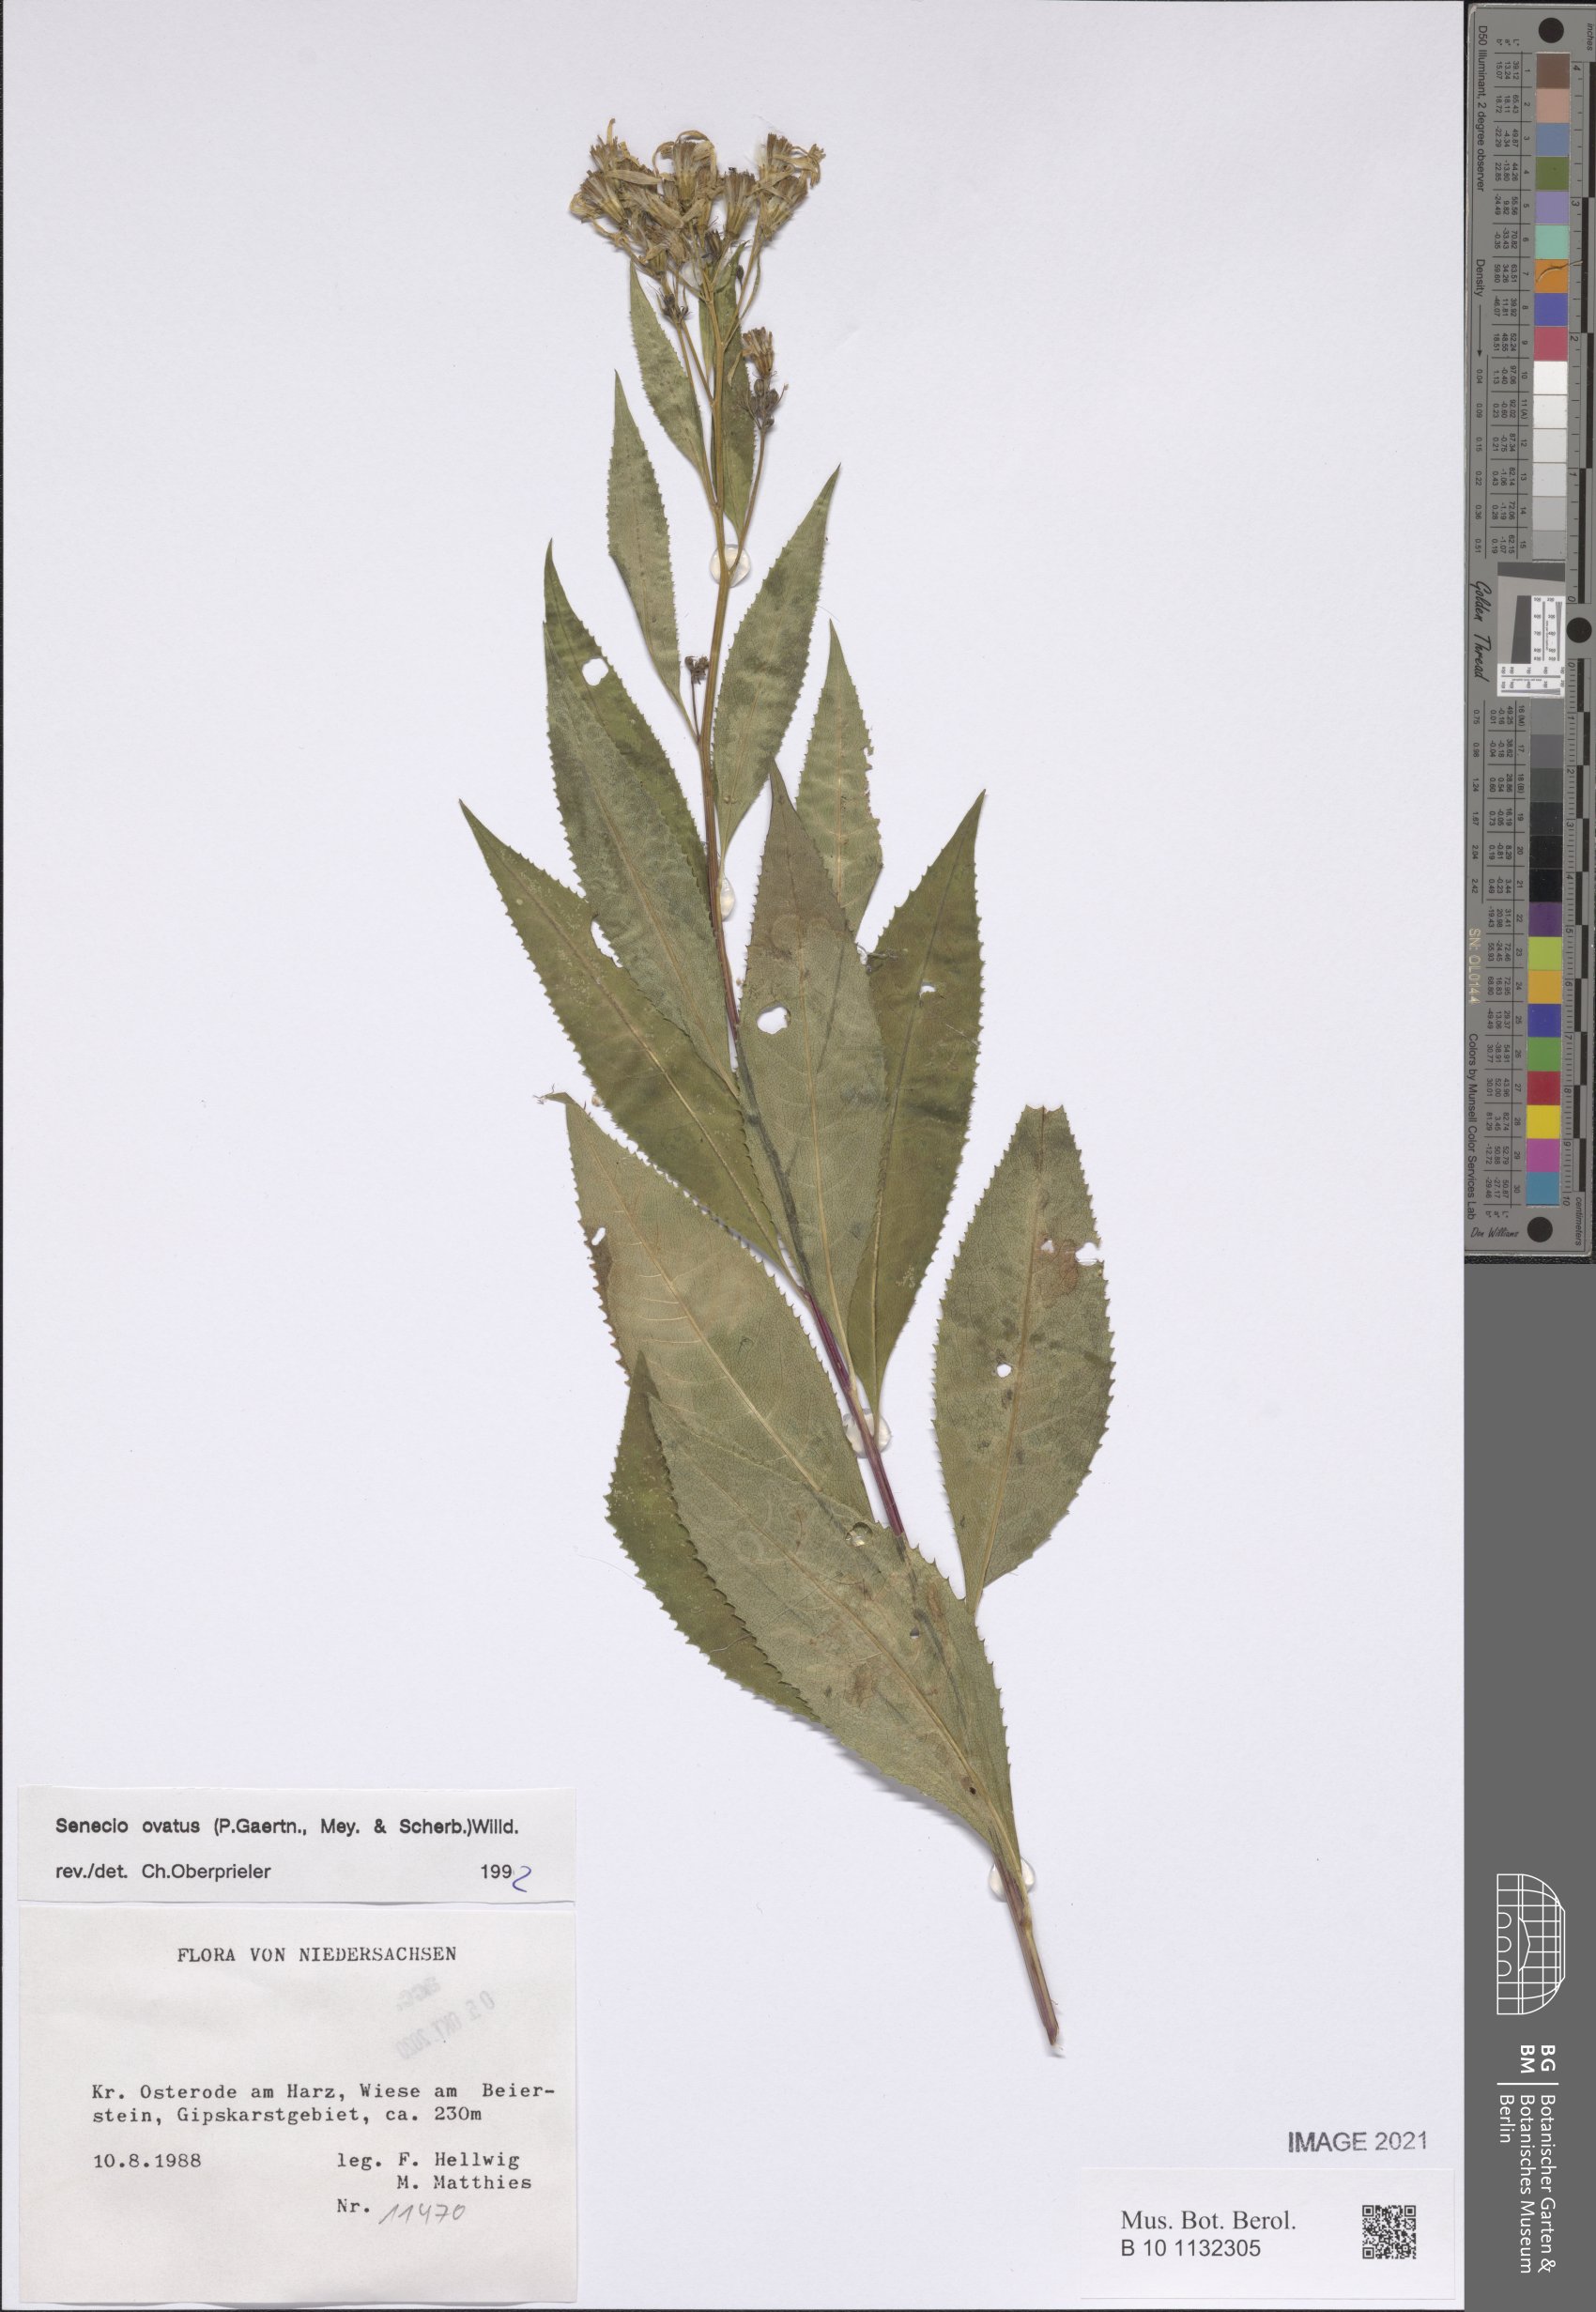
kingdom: Plantae
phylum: Tracheophyta
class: Magnoliopsida
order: Asterales
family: Asteraceae
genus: Senecio
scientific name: Senecio ovatus
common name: Wood ragwort
